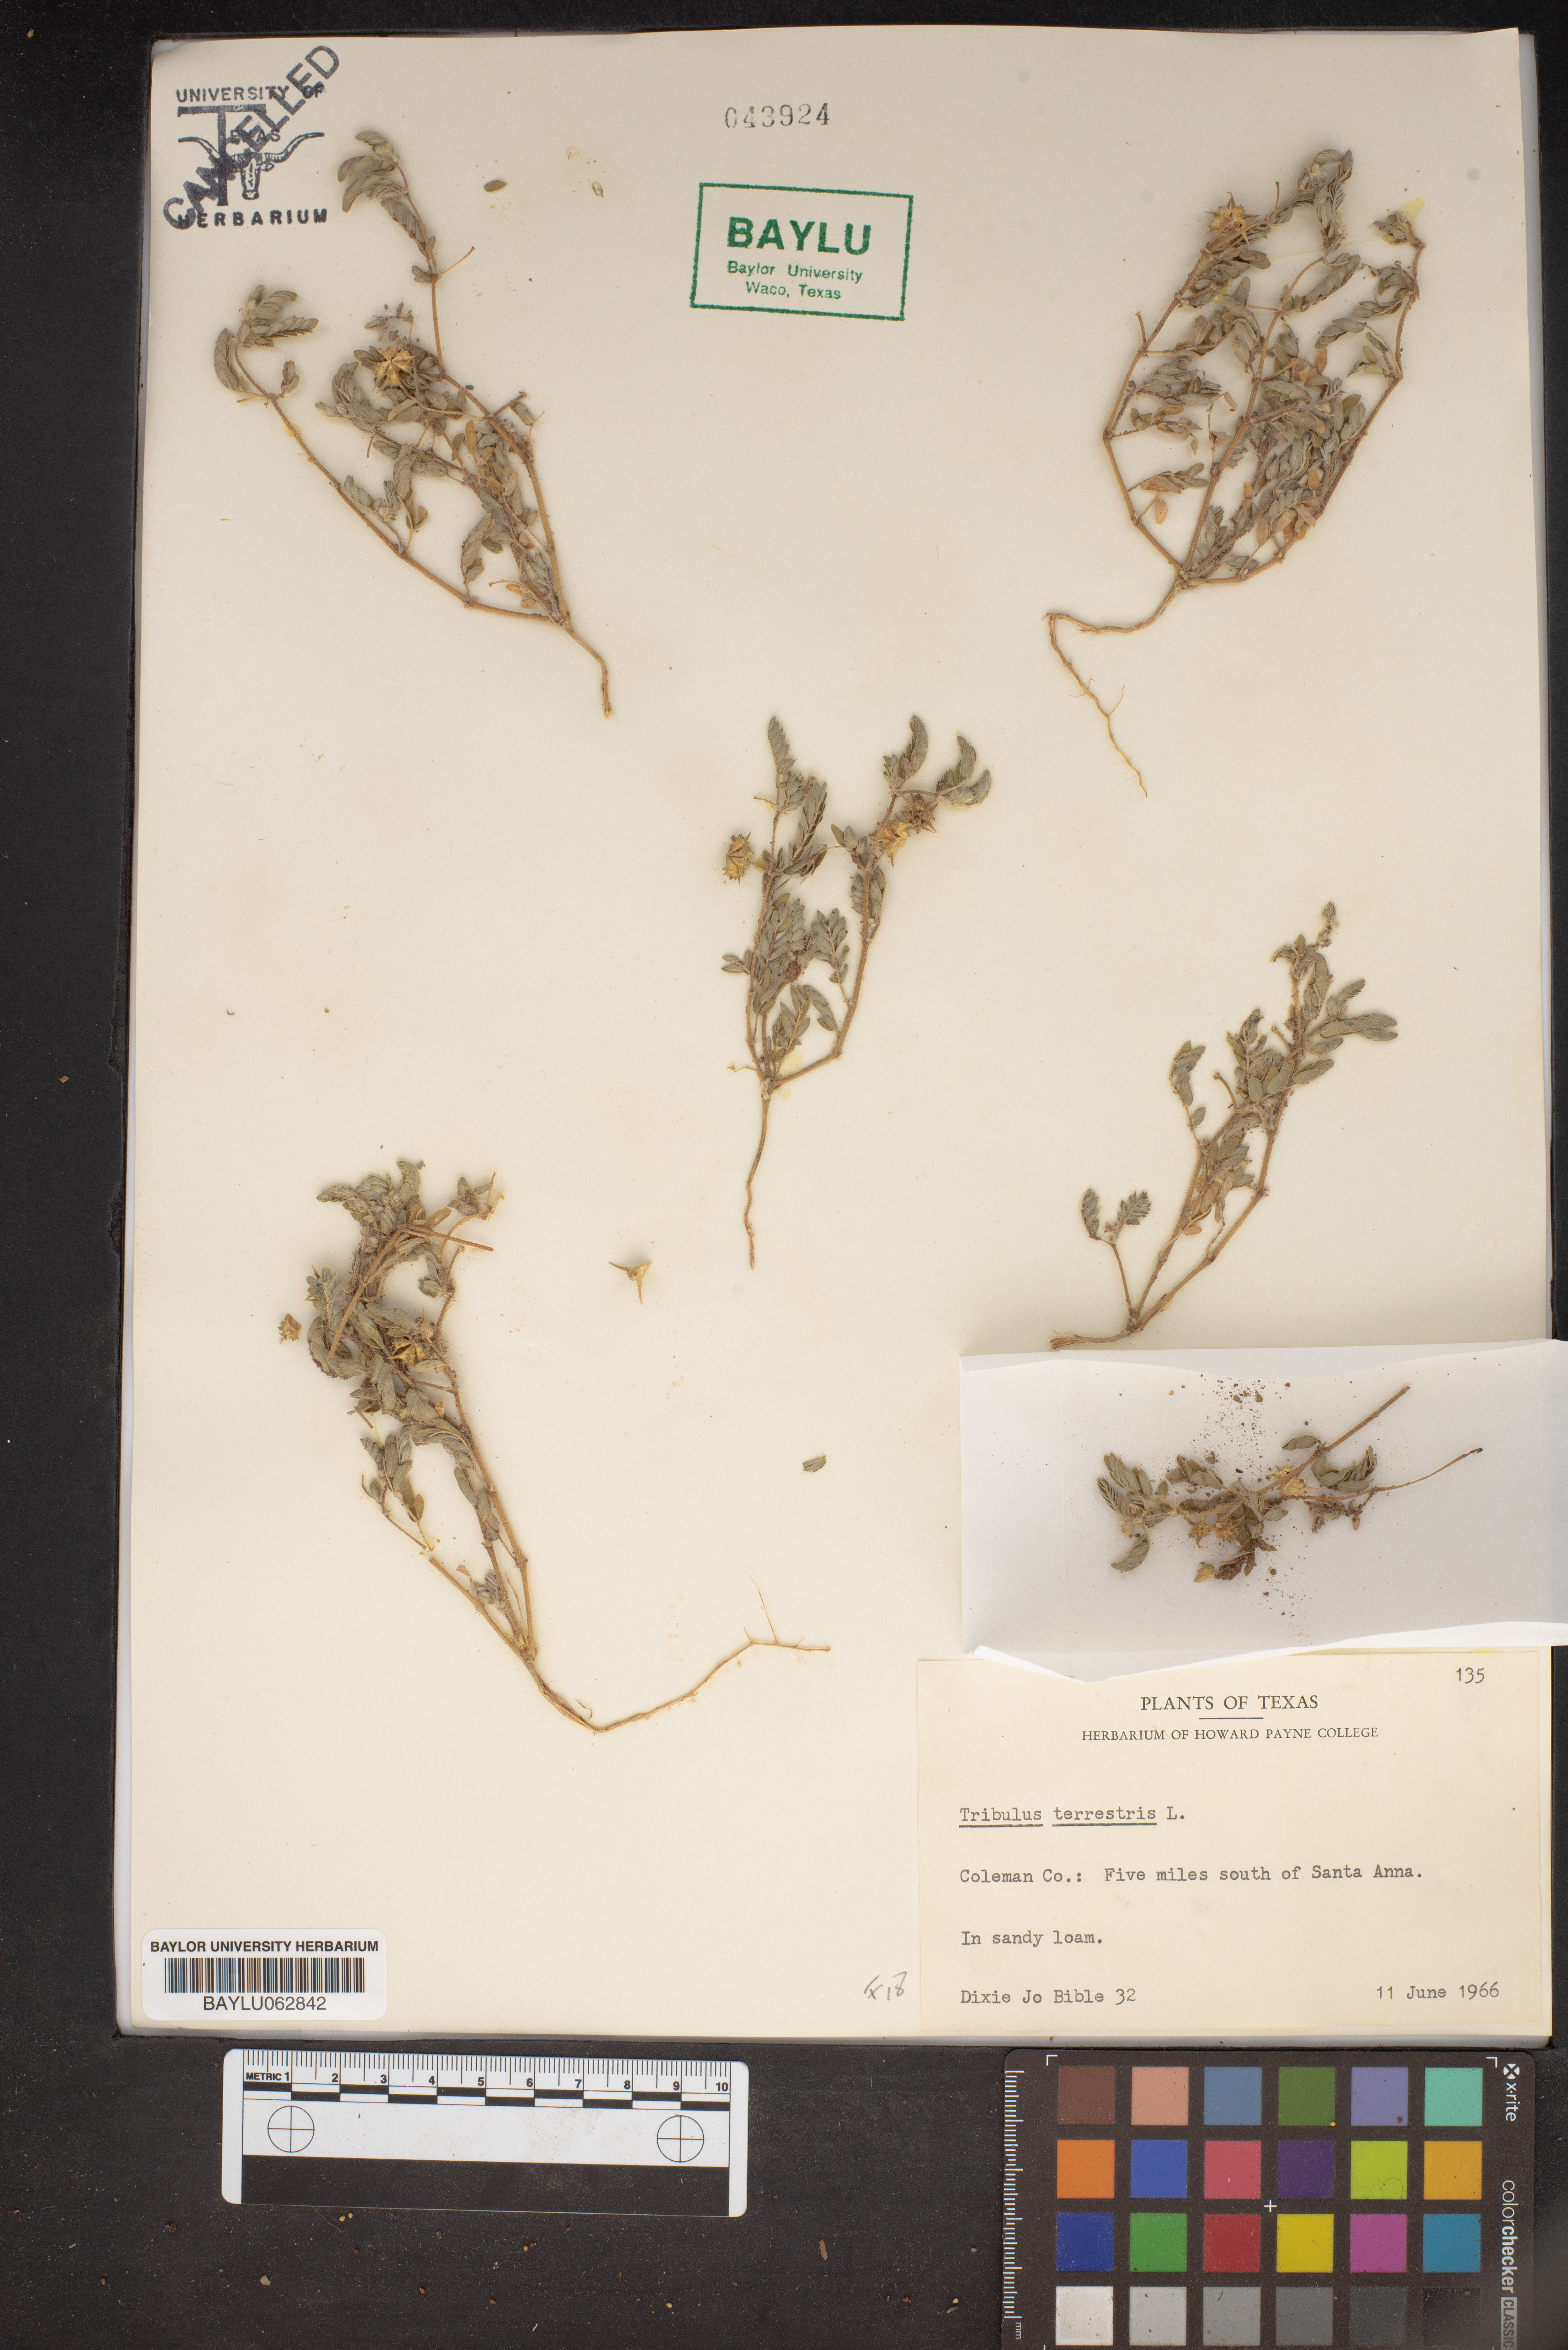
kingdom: Plantae
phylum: Tracheophyta
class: Magnoliopsida
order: Zygophyllales
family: Zygophyllaceae
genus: Tribulus
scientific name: Tribulus terrestris
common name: Puncturevine
